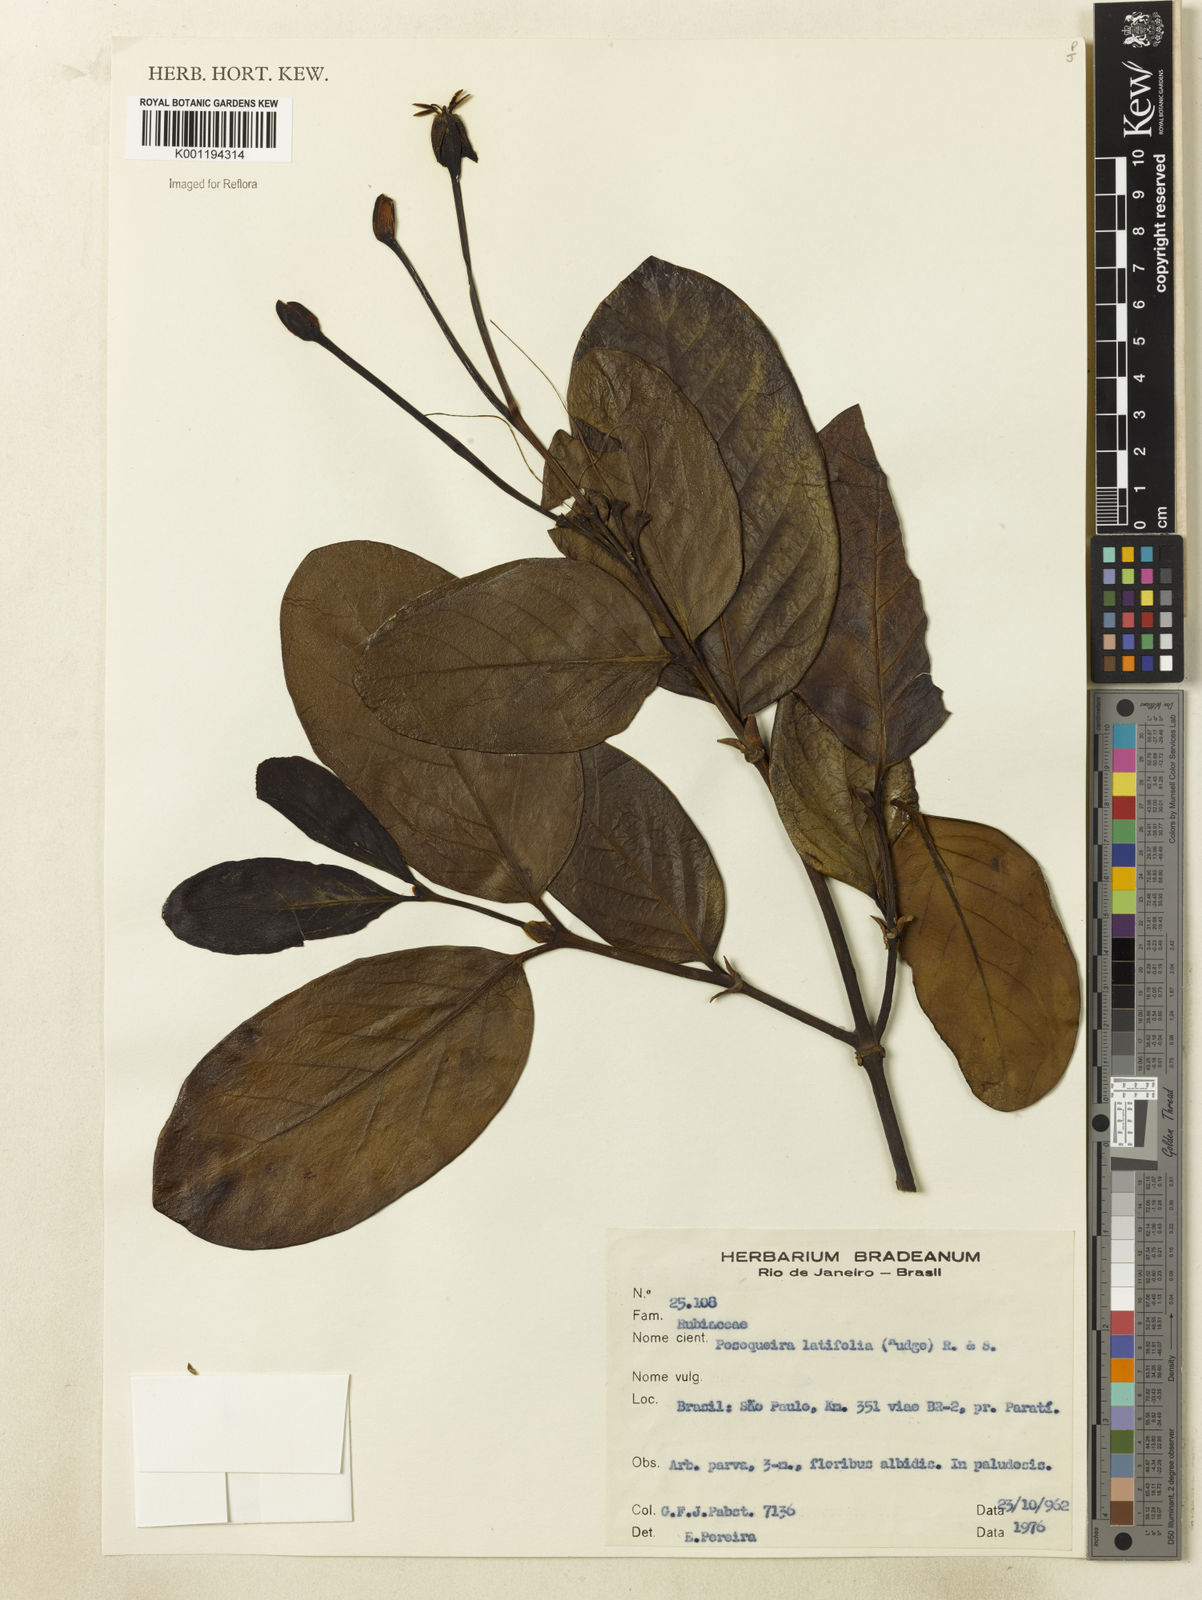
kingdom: Plantae
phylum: Tracheophyta
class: Magnoliopsida
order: Gentianales
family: Rubiaceae
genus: Posoqueria
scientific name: Posoqueria latifolia
